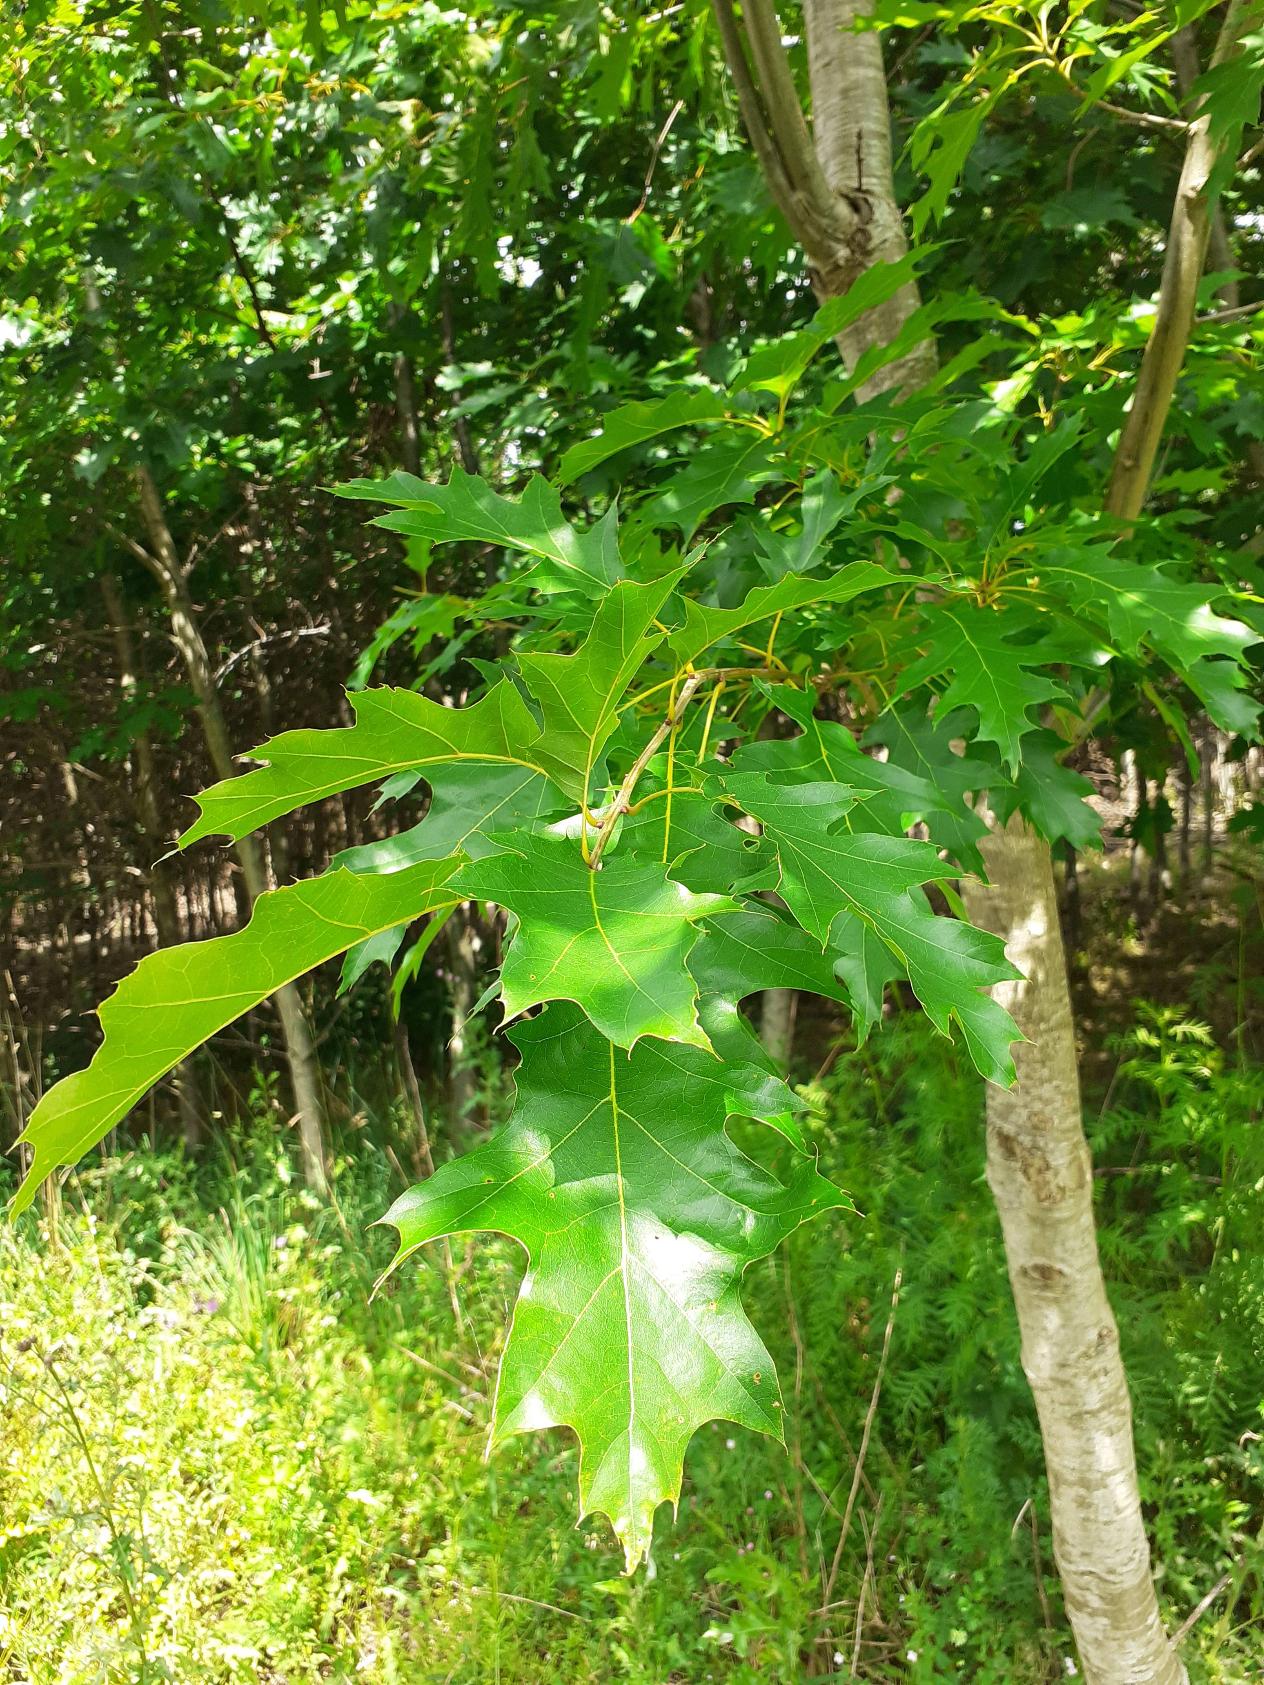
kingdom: Plantae
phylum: Tracheophyta
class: Magnoliopsida
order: Fagales
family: Fagaceae
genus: Quercus
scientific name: Quercus rubra
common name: Rød-eg
